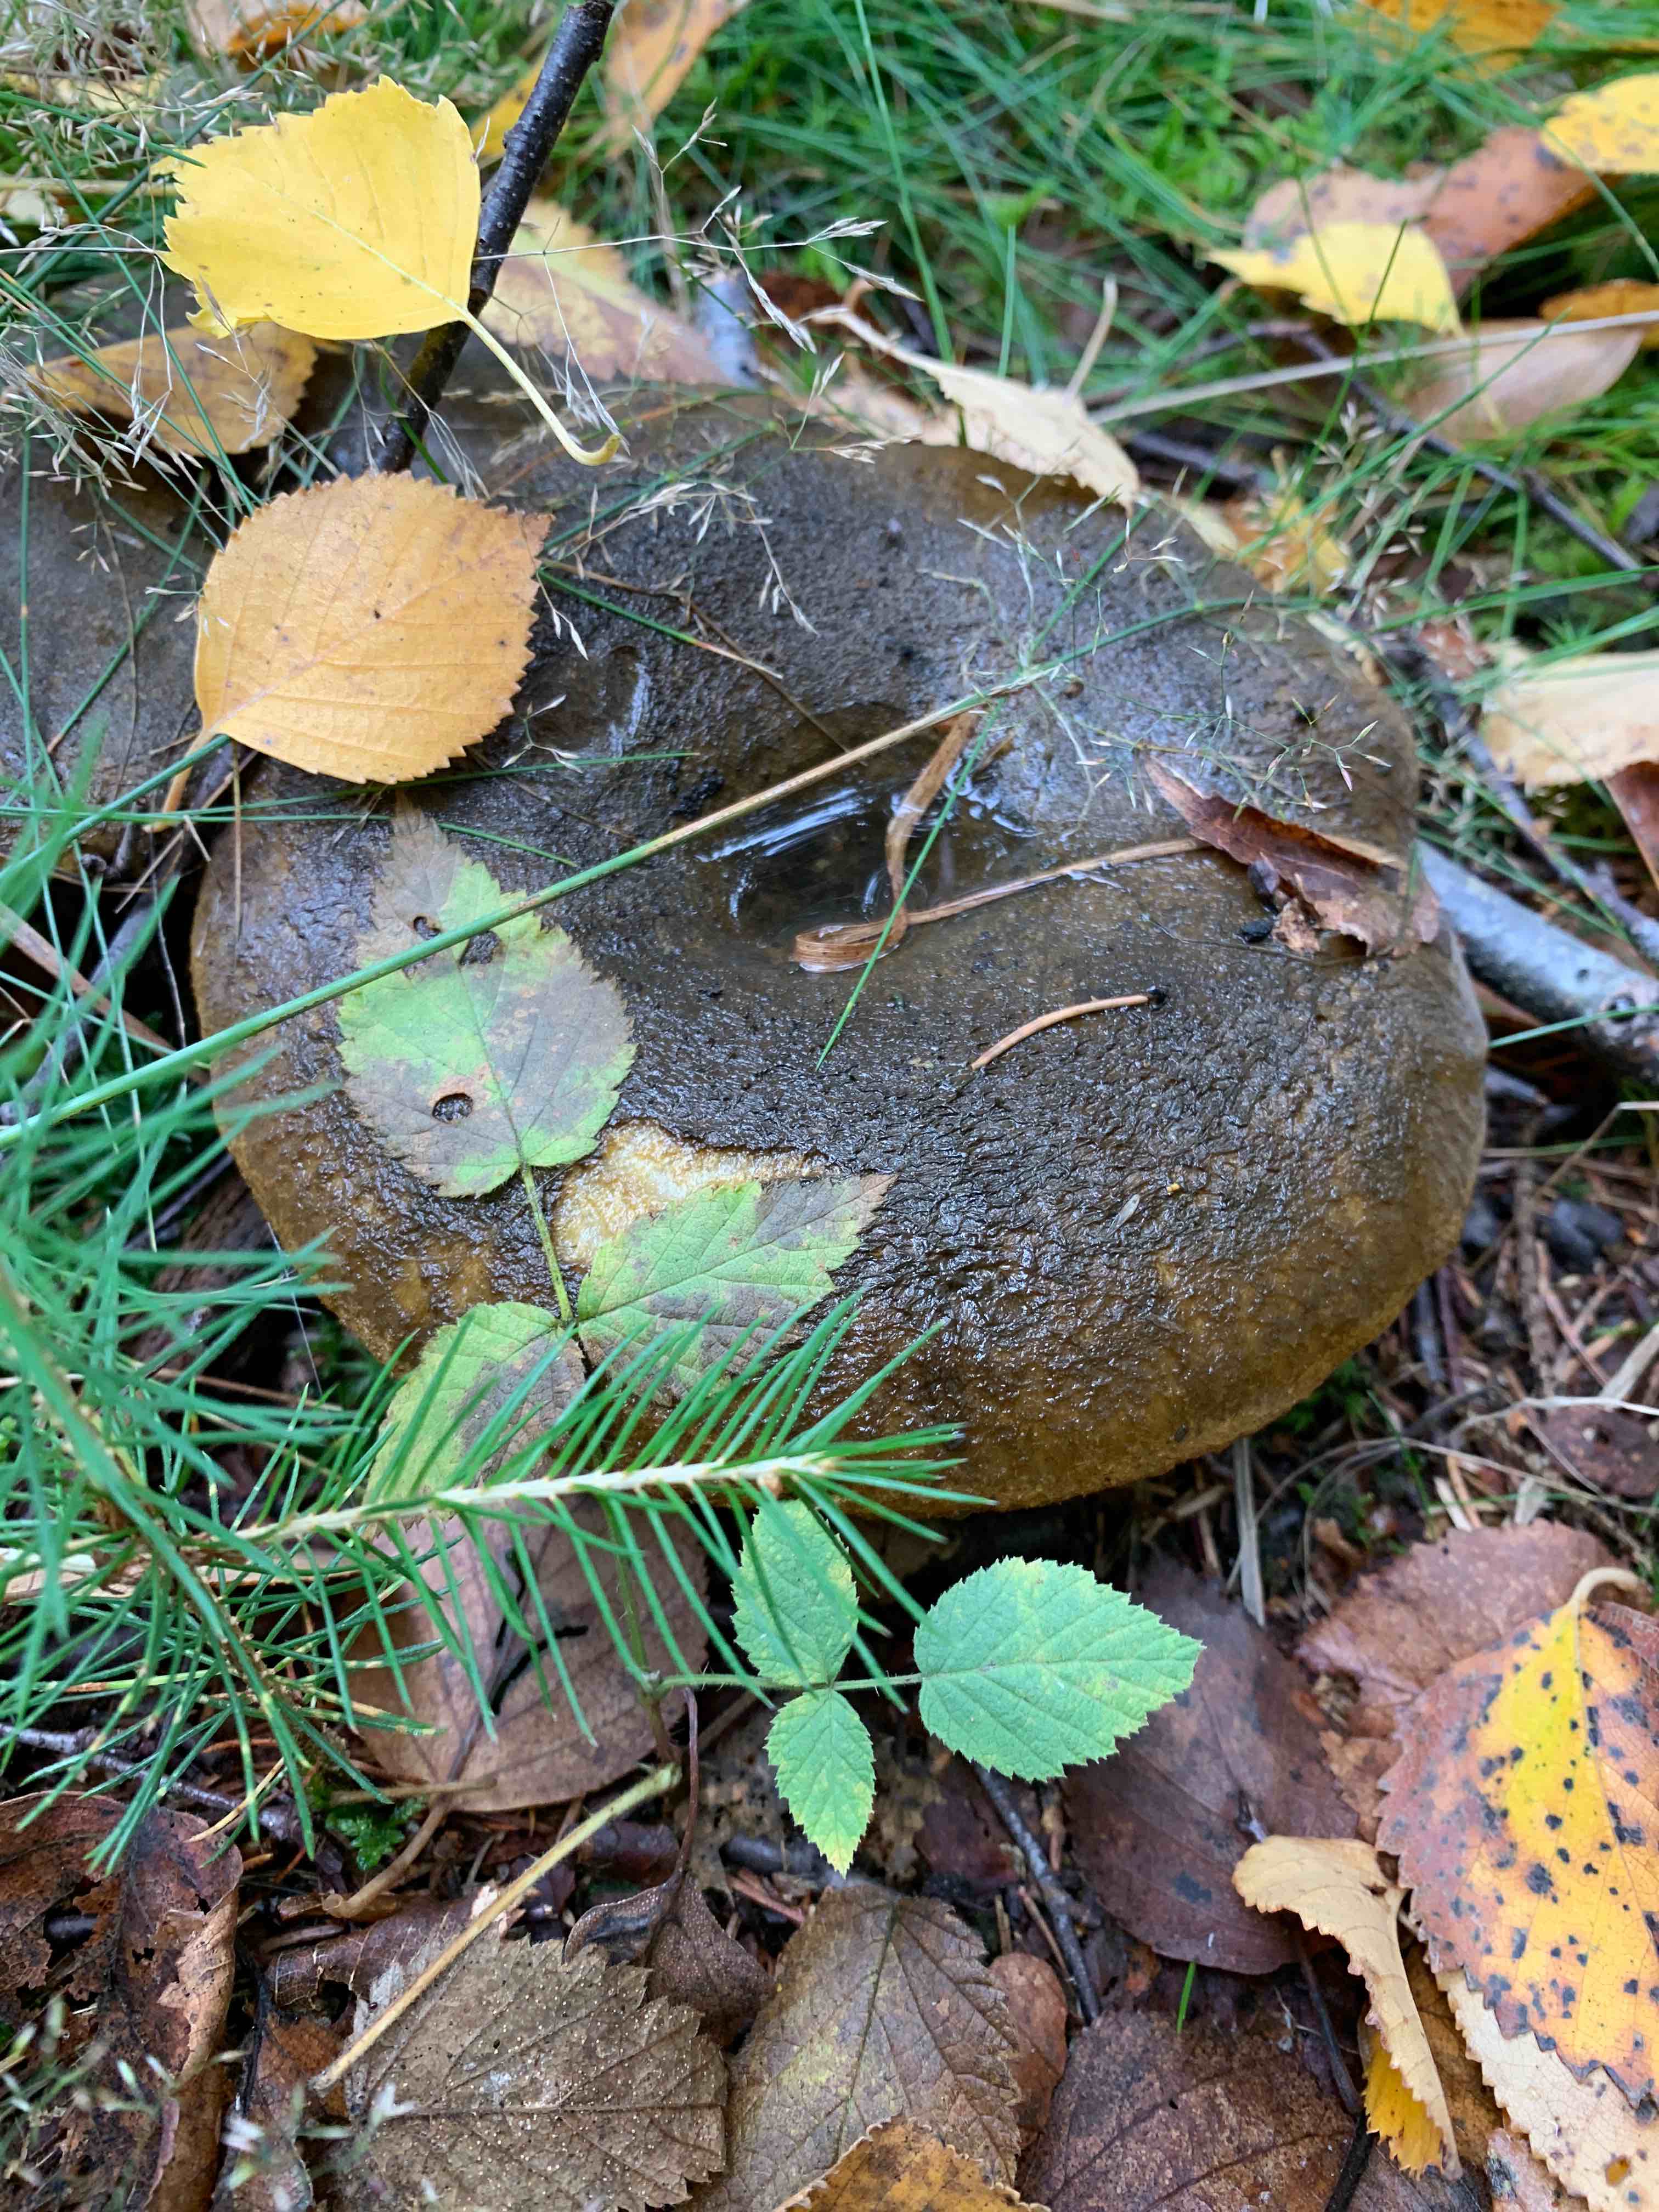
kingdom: Fungi
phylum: Basidiomycota
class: Agaricomycetes
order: Russulales
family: Russulaceae
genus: Lactarius
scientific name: Lactarius necator
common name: manddraber-mælkehat
